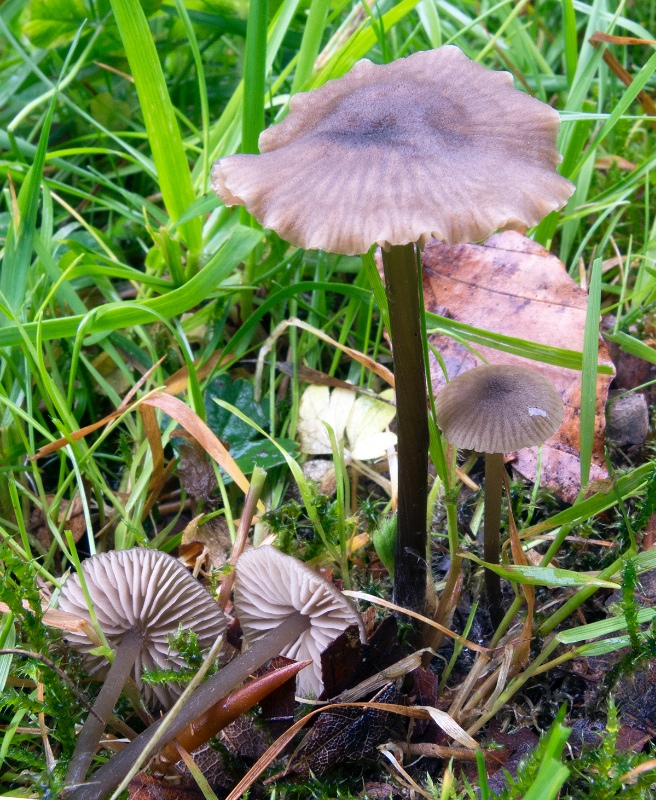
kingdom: Fungi
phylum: Basidiomycota
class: Agaricomycetes
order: Agaricales
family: Entolomataceae
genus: Entoloma
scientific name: Entoloma minutum
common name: liden rødblad
